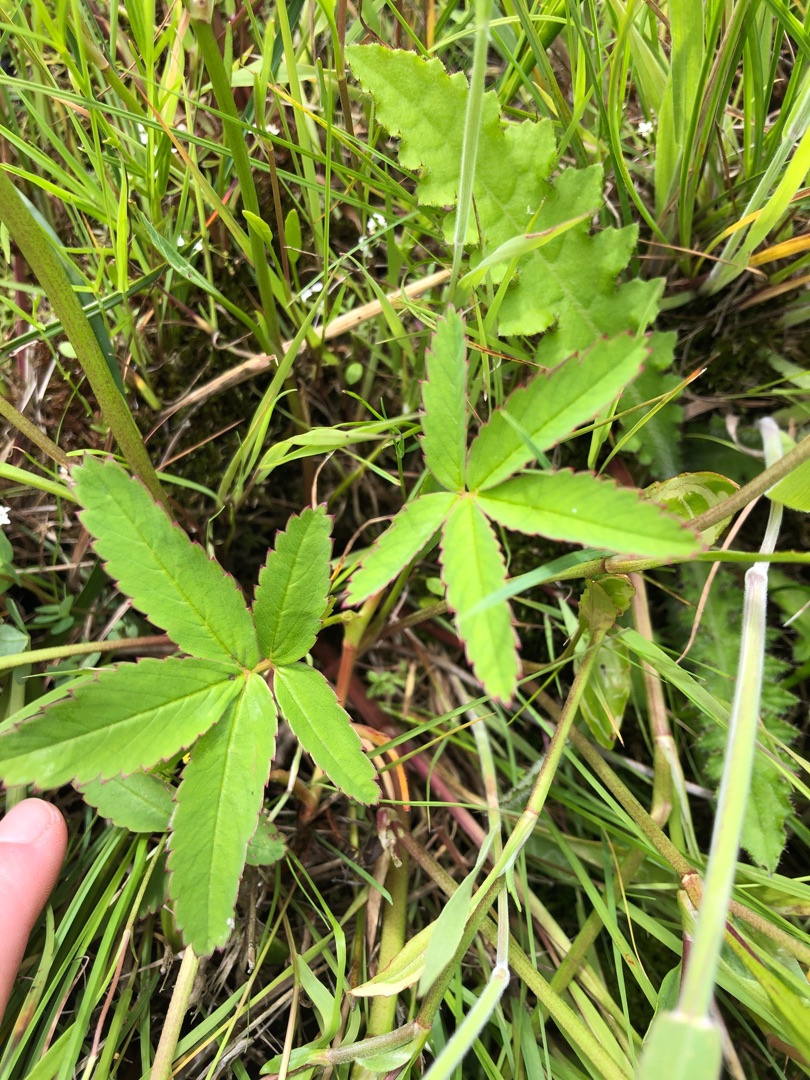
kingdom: Plantae
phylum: Tracheophyta
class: Magnoliopsida
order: Rosales
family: Rosaceae
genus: Comarum
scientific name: Comarum palustre
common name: Kragefod
